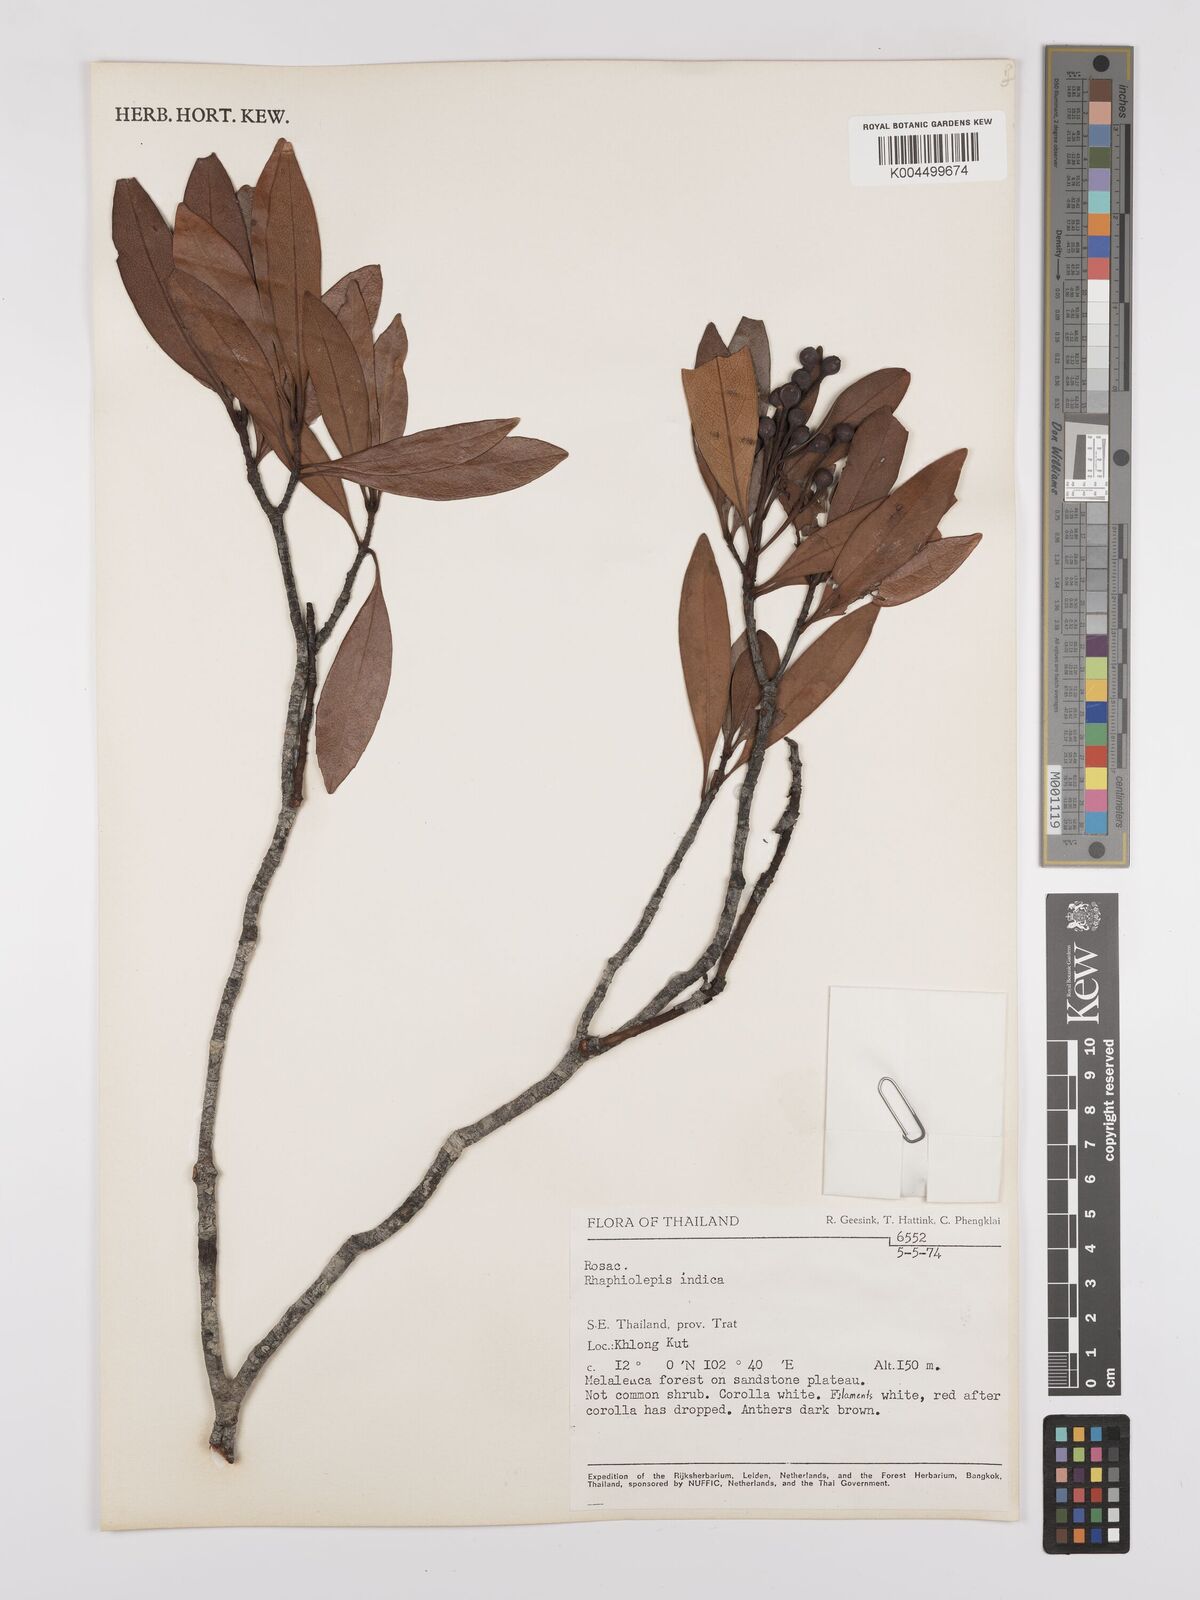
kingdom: Plantae
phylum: Tracheophyta
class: Magnoliopsida
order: Rosales
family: Rosaceae
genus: Rhaphiolepis
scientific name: Rhaphiolepis indica
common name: India-hawthorn
